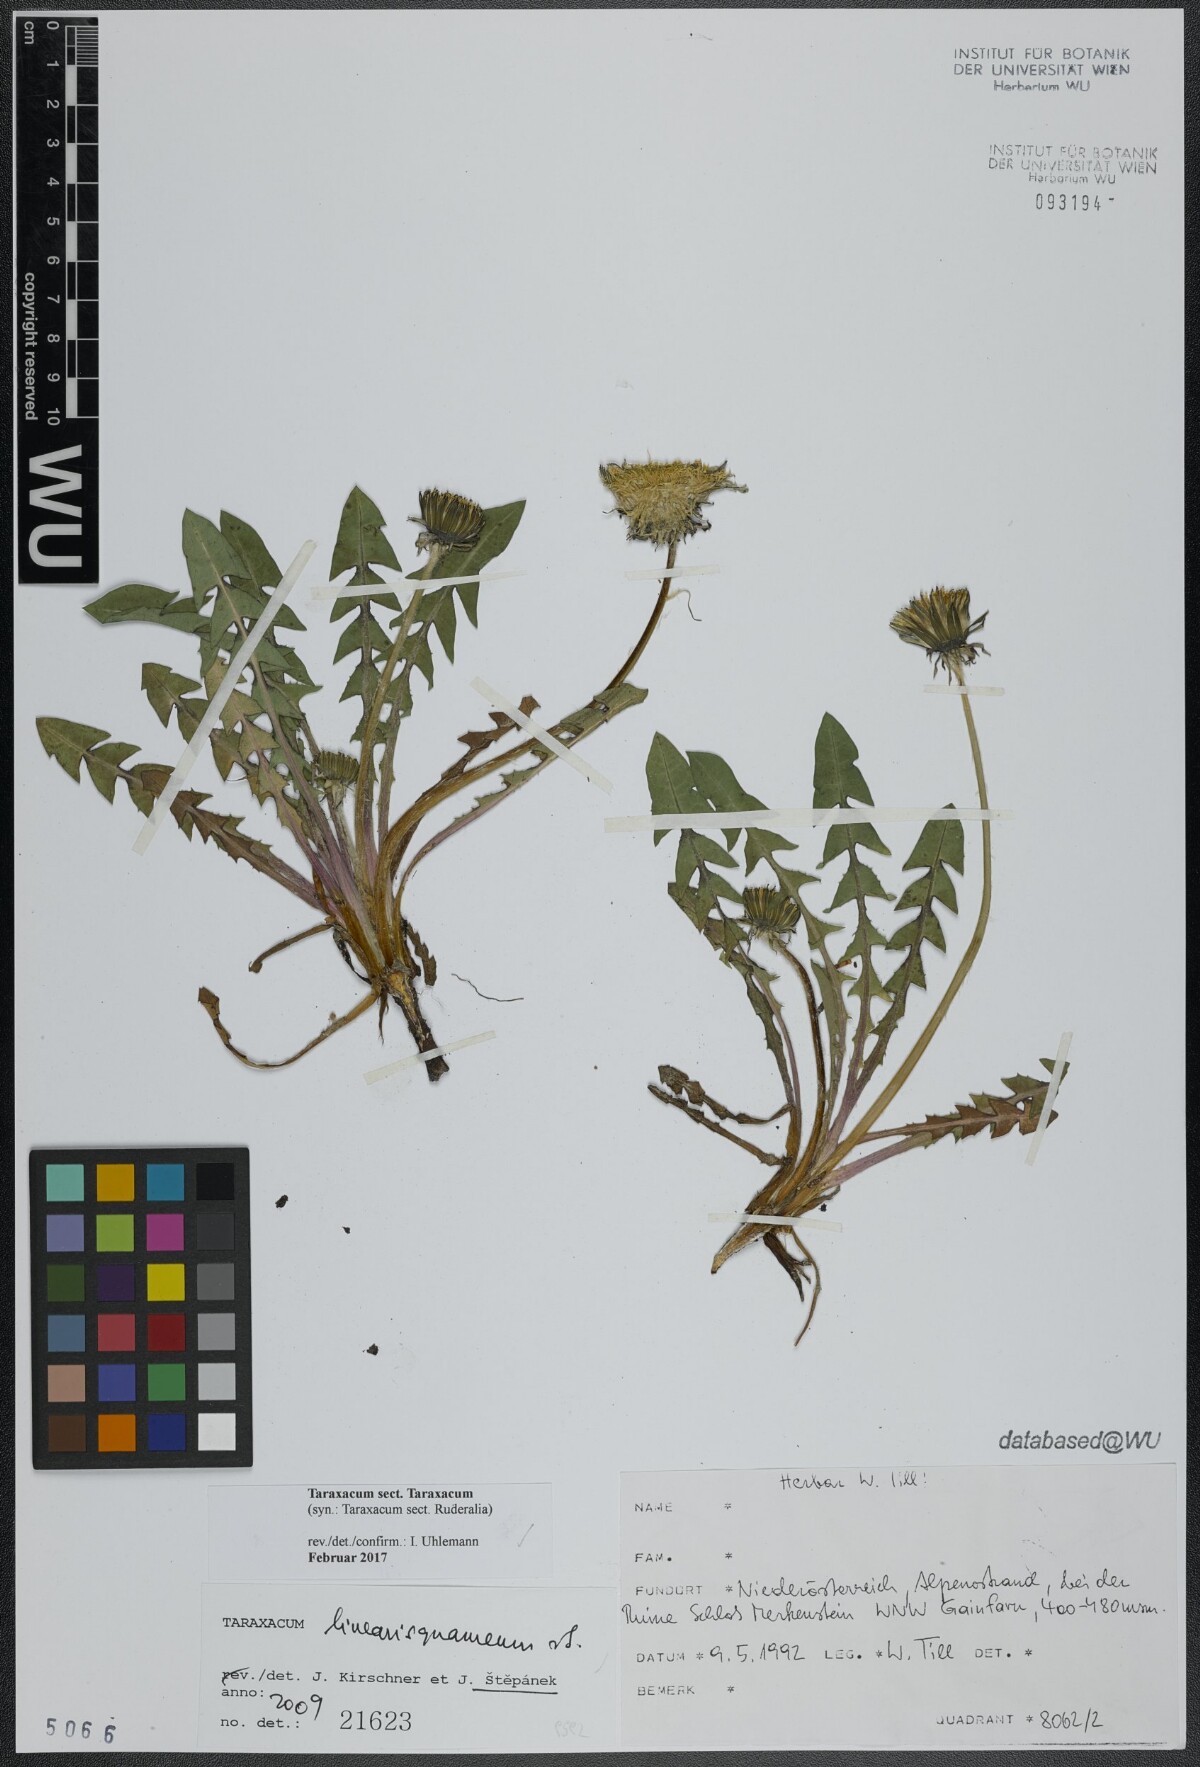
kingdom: Plantae
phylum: Tracheophyta
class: Magnoliopsida
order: Asterales
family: Asteraceae
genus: Taraxacum
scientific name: Taraxacum
